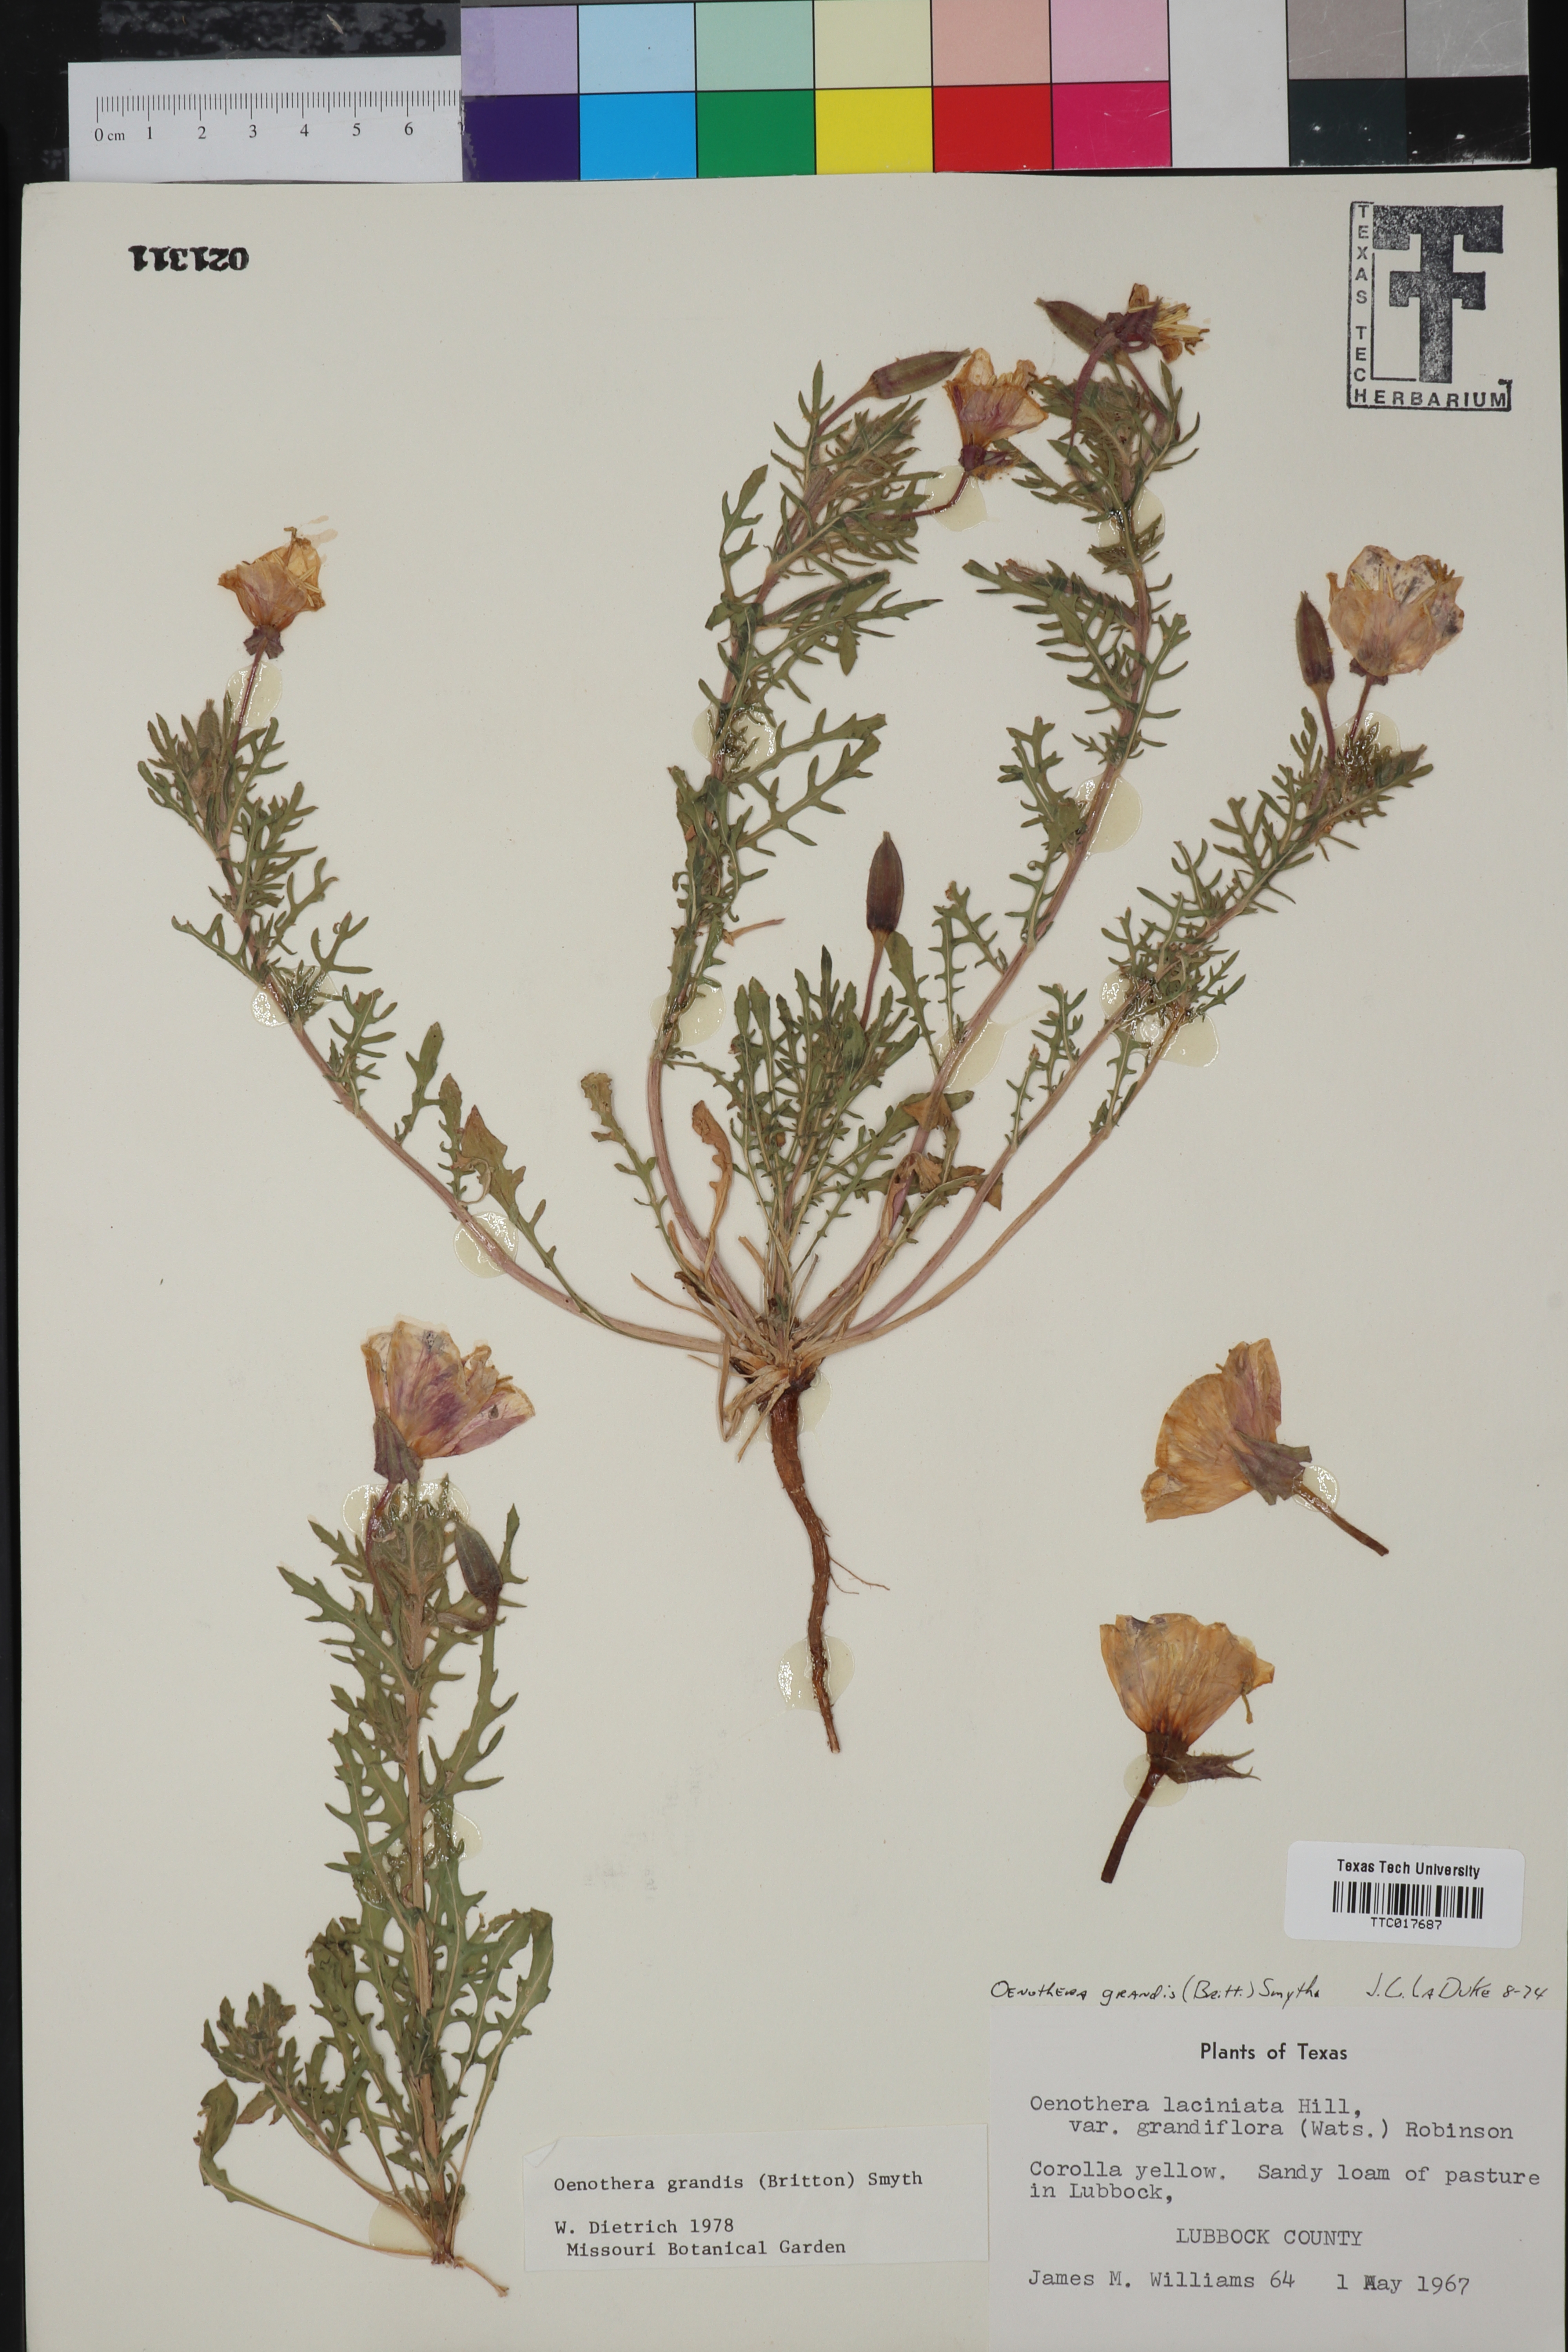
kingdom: Plantae
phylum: Tracheophyta
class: Magnoliopsida
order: Myrtales
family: Onagraceae
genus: Oenothera
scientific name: Oenothera grandis
